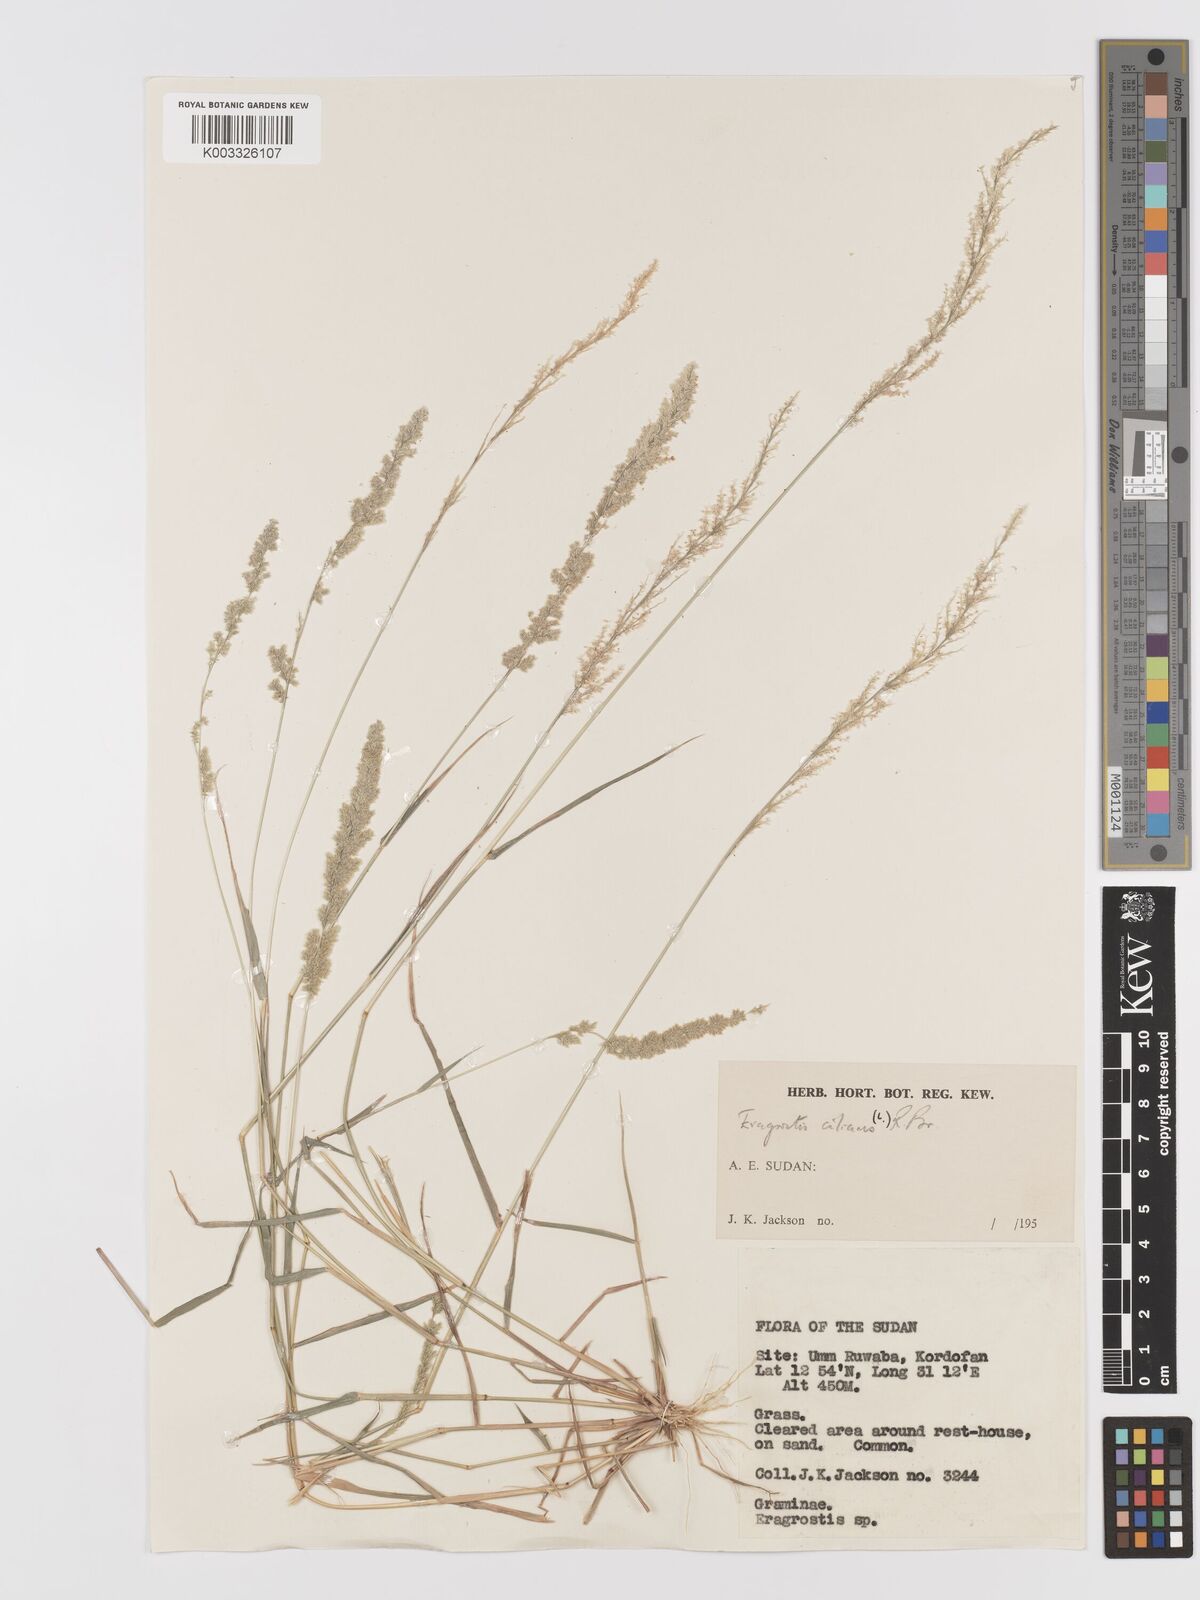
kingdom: Plantae
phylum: Tracheophyta
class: Liliopsida
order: Poales
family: Poaceae
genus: Eragrostis
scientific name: Eragrostis ciliaris
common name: Gophertail lovegrass
